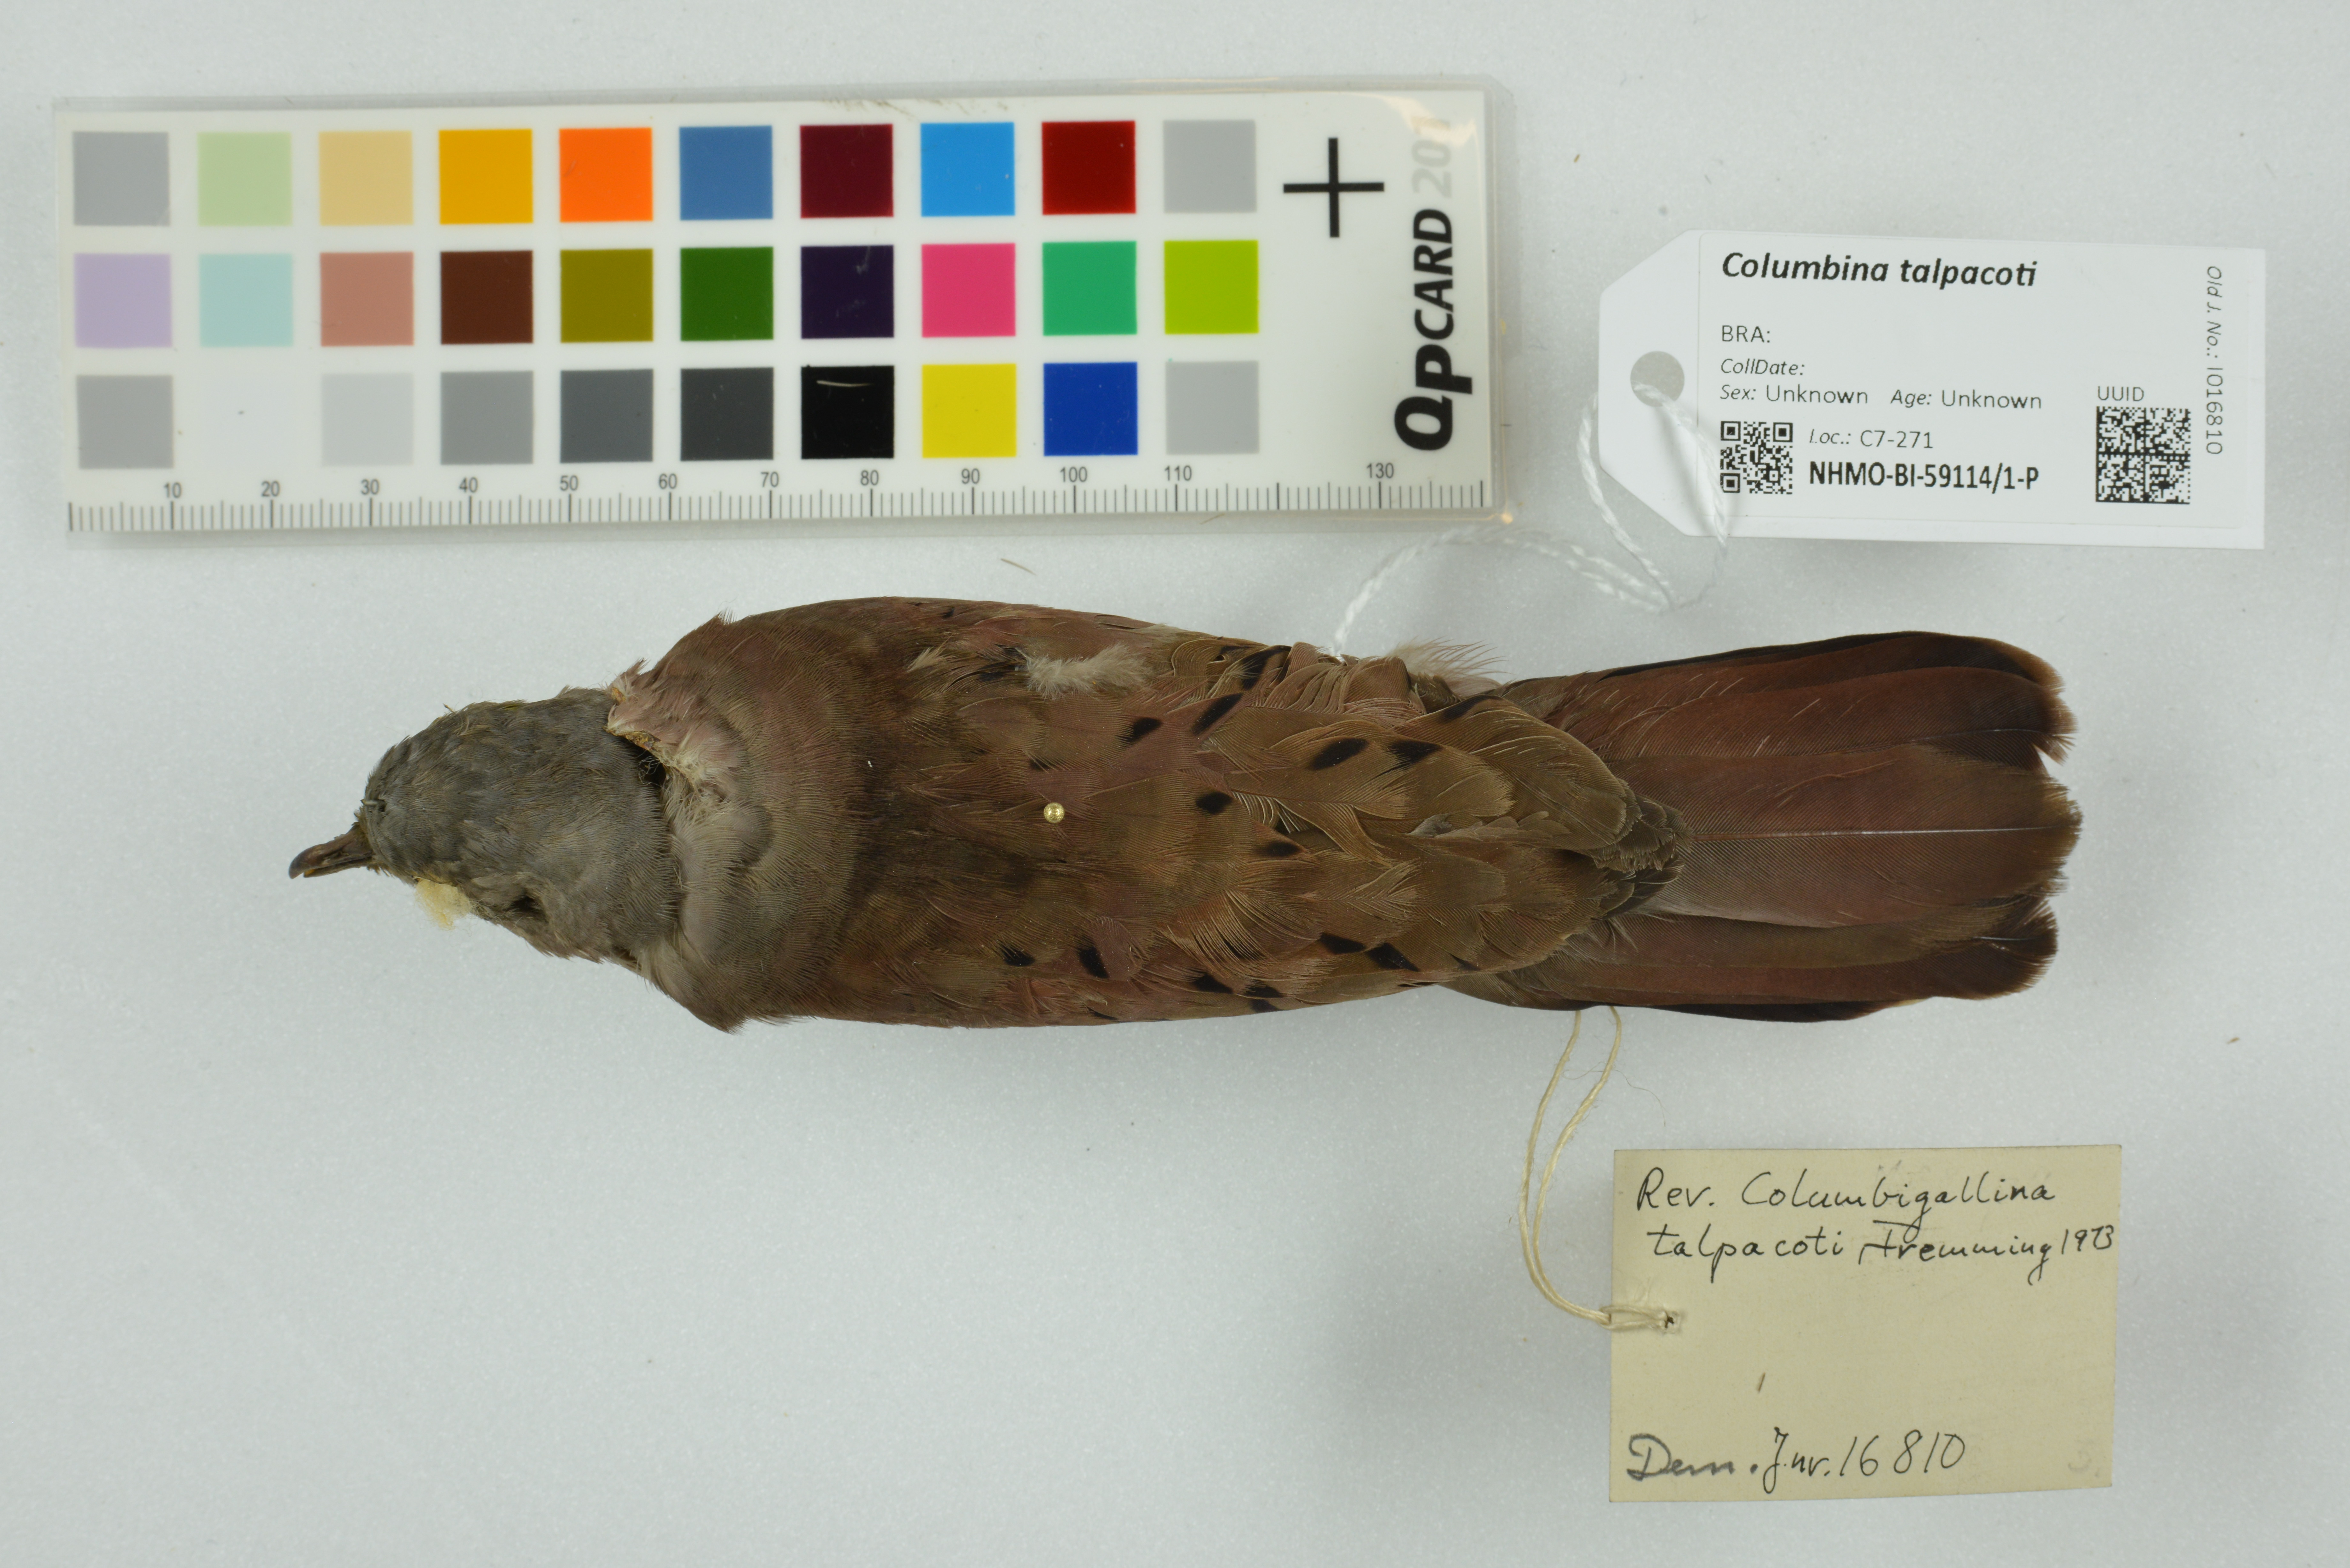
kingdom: Animalia
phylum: Chordata
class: Aves
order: Columbiformes
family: Columbidae
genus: Columbina
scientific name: Columbina talpacoti
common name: Ruddy ground dove
